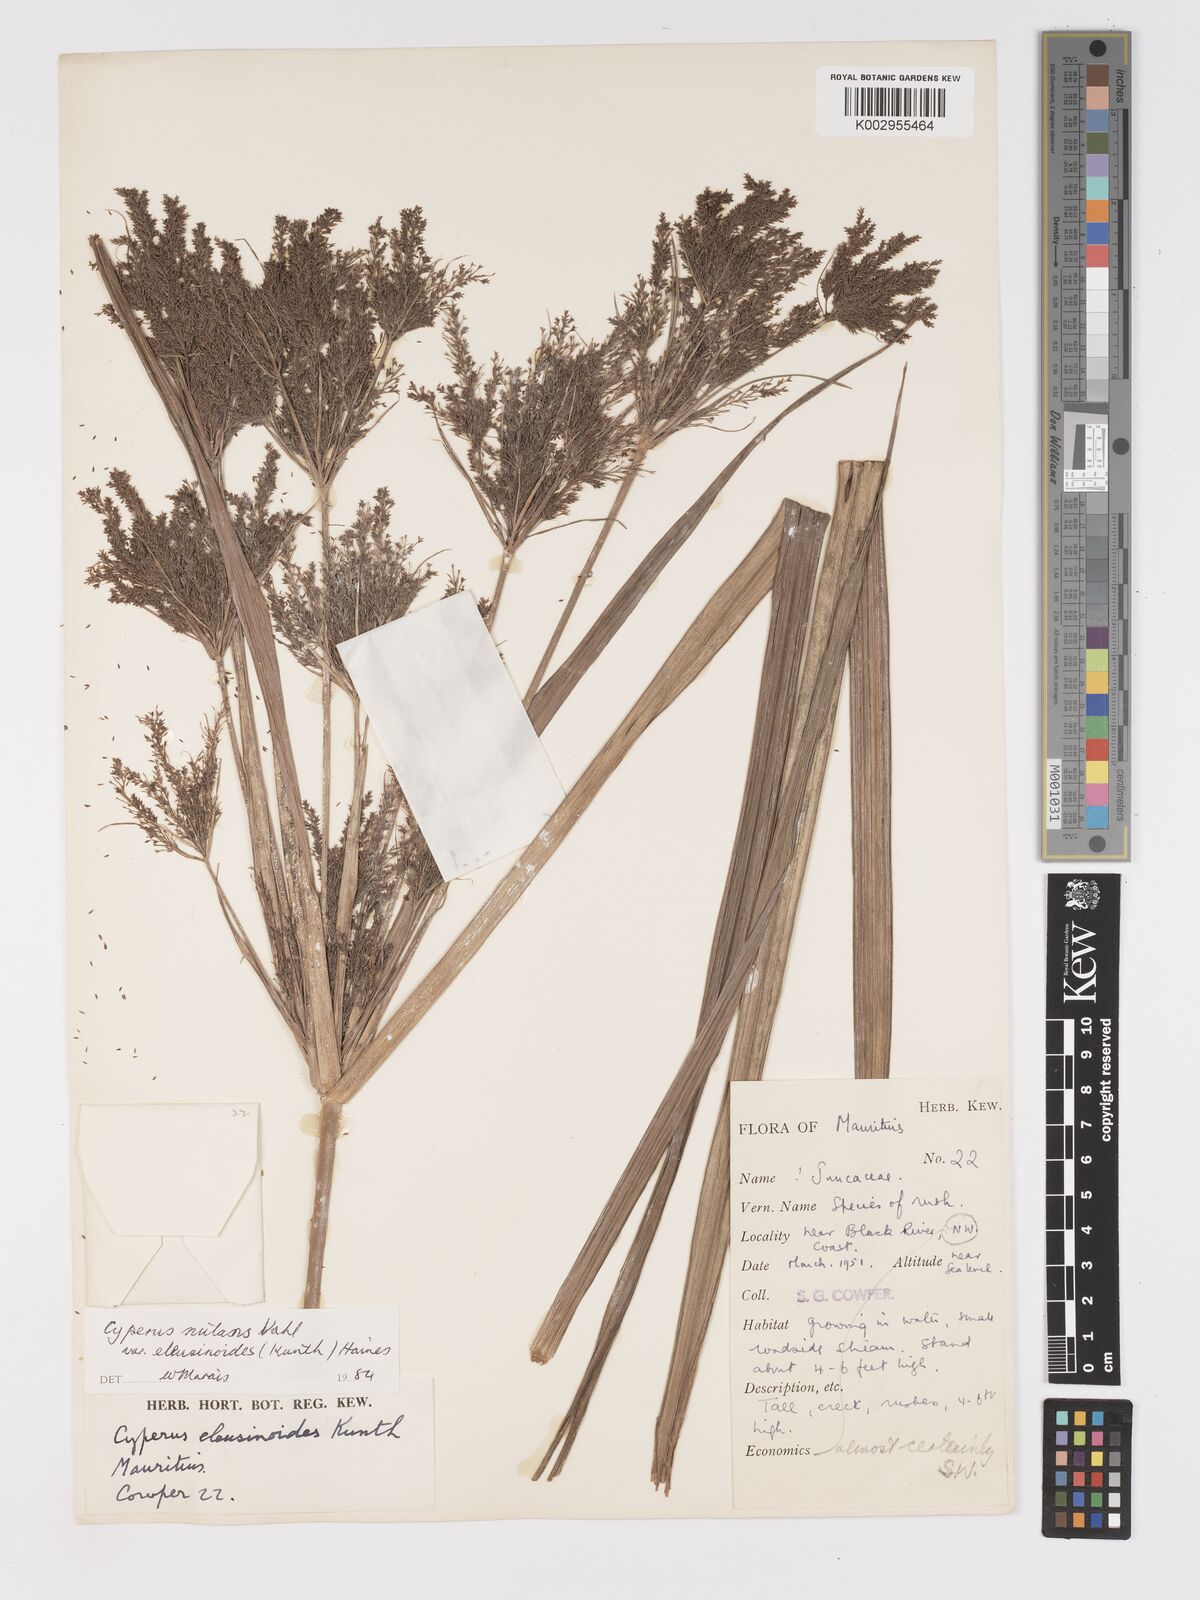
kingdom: Plantae
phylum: Tracheophyta
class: Liliopsida
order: Poales
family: Cyperaceae
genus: Cyperus
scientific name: Cyperus nutans
